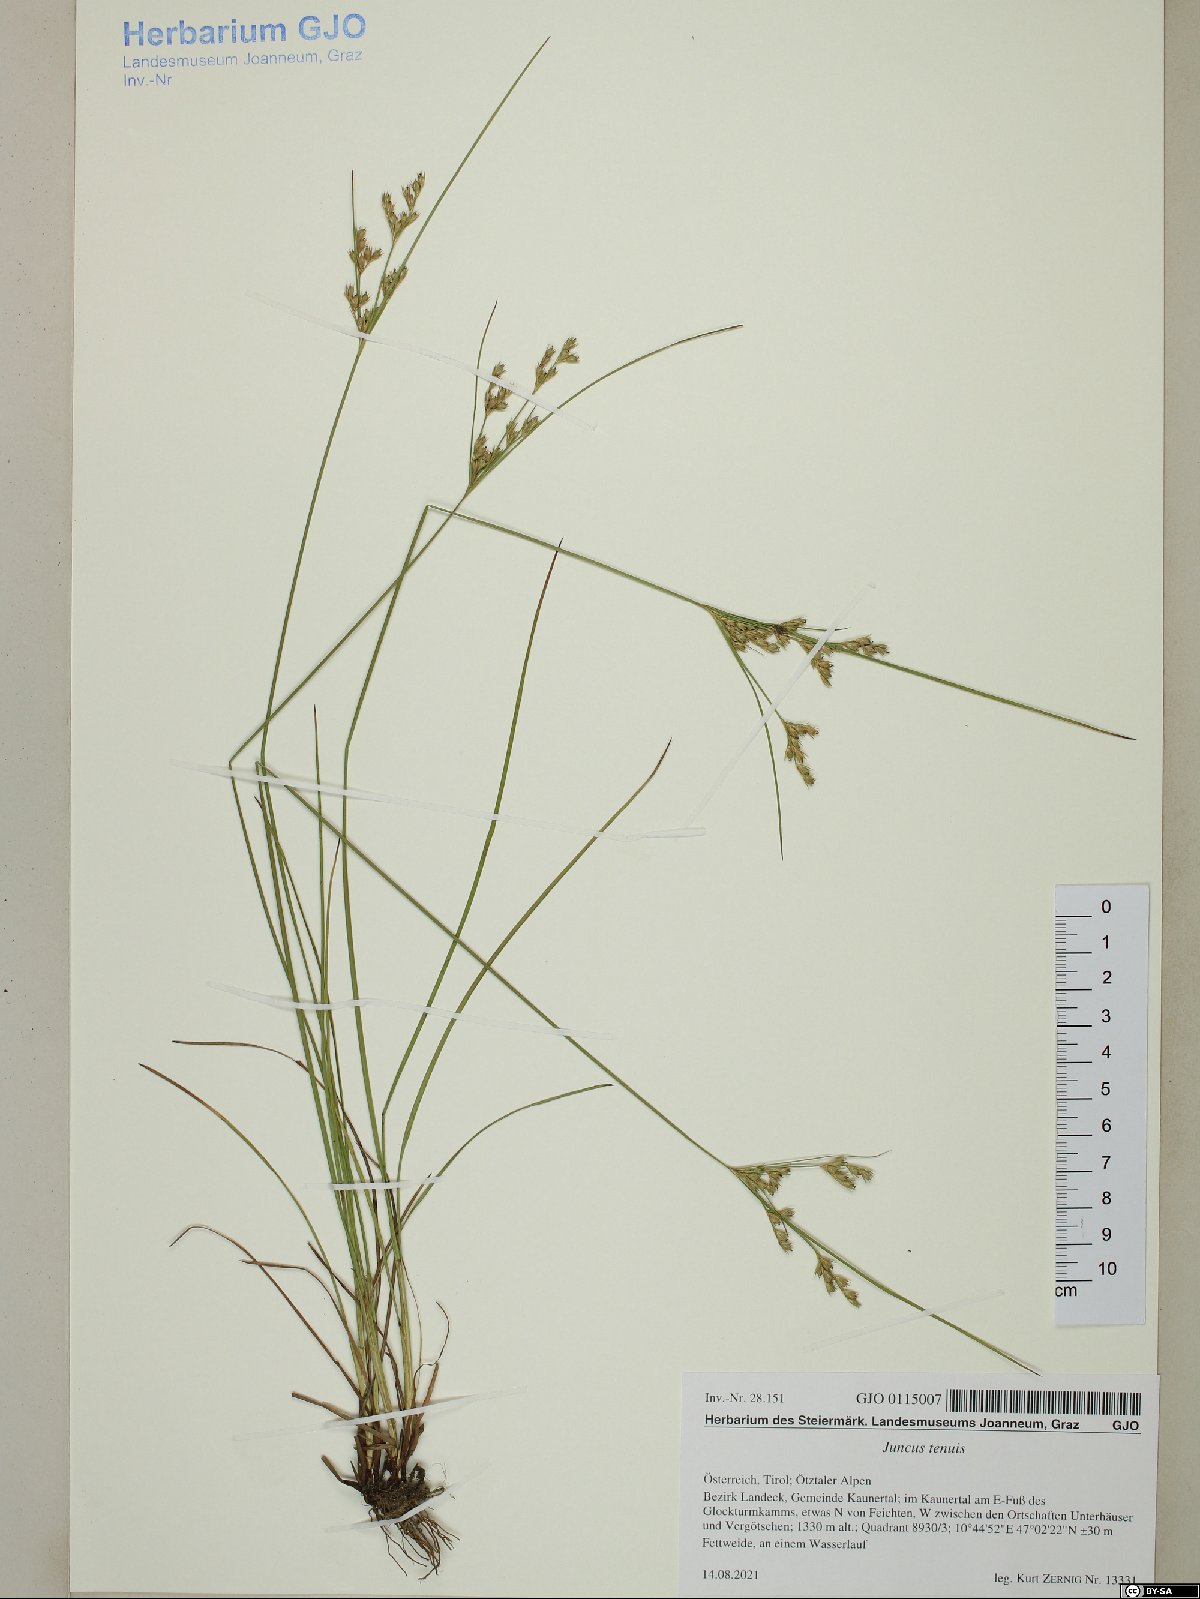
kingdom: Plantae
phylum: Tracheophyta
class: Liliopsida
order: Poales
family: Juncaceae
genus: Juncus
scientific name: Juncus tenuis
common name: Slender rush
